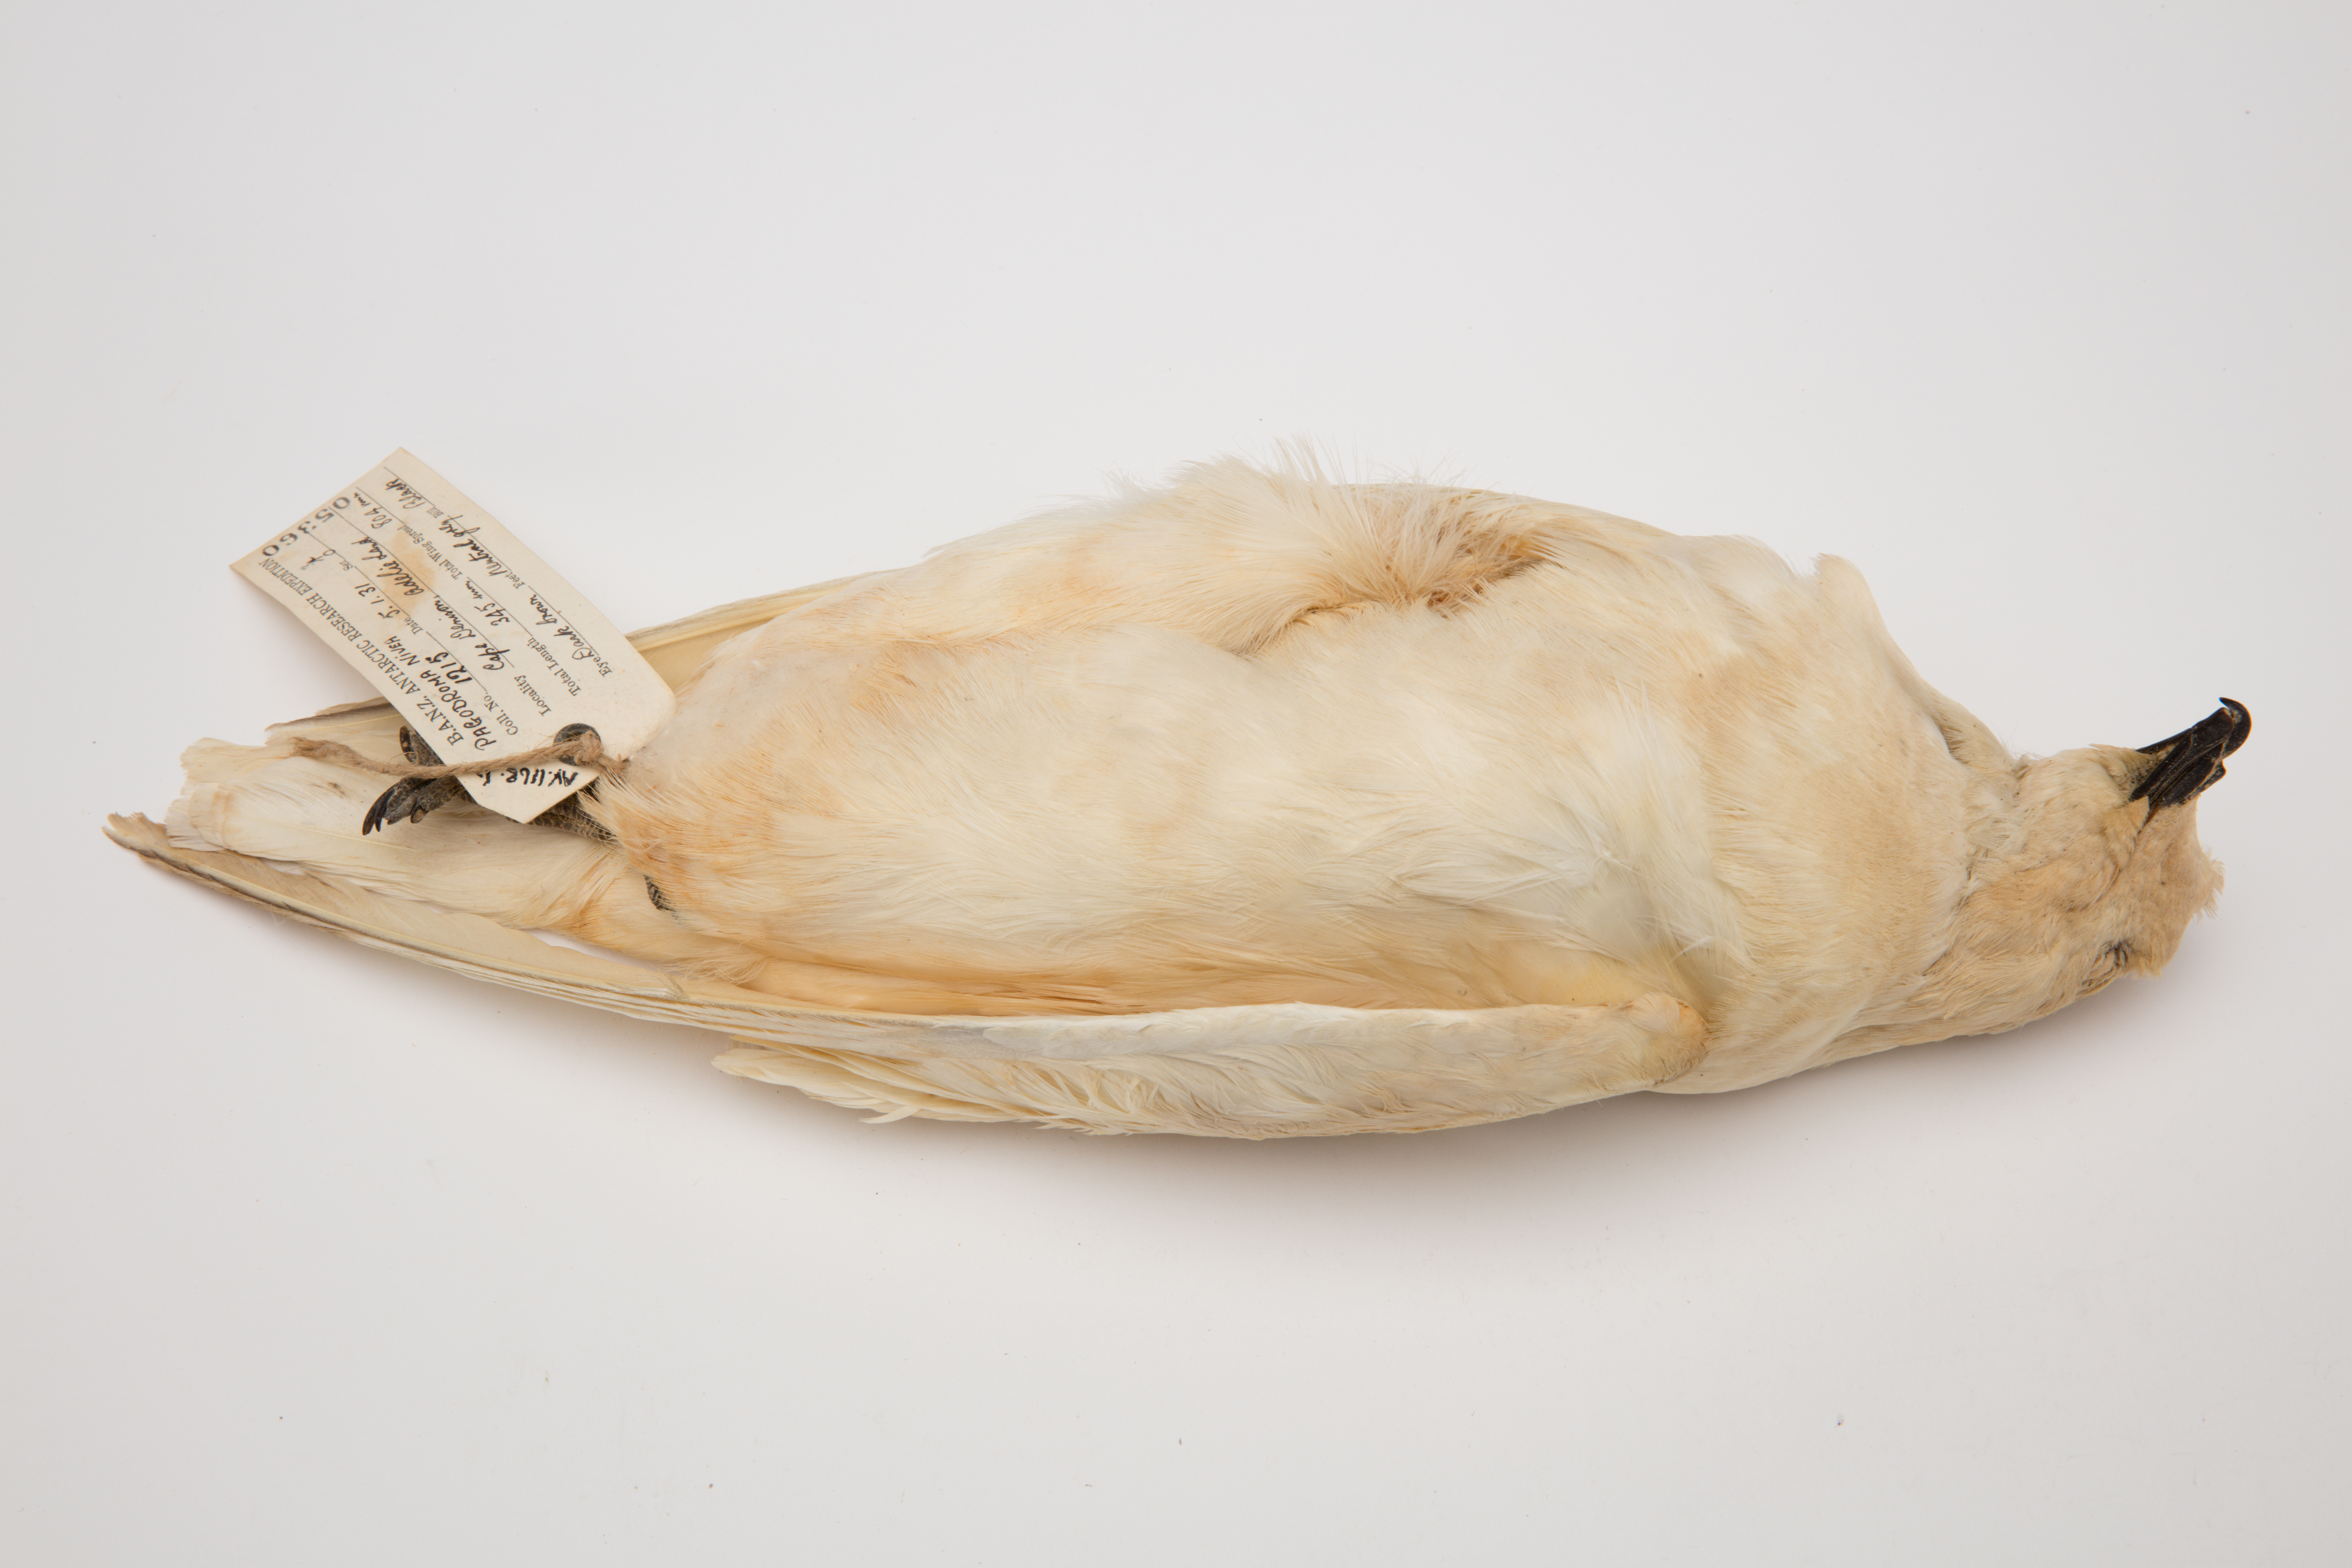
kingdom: Animalia
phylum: Chordata
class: Aves
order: Procellariiformes
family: Procellariidae
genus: Pagodroma
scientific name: Pagodroma nivea
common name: Snow petrel
